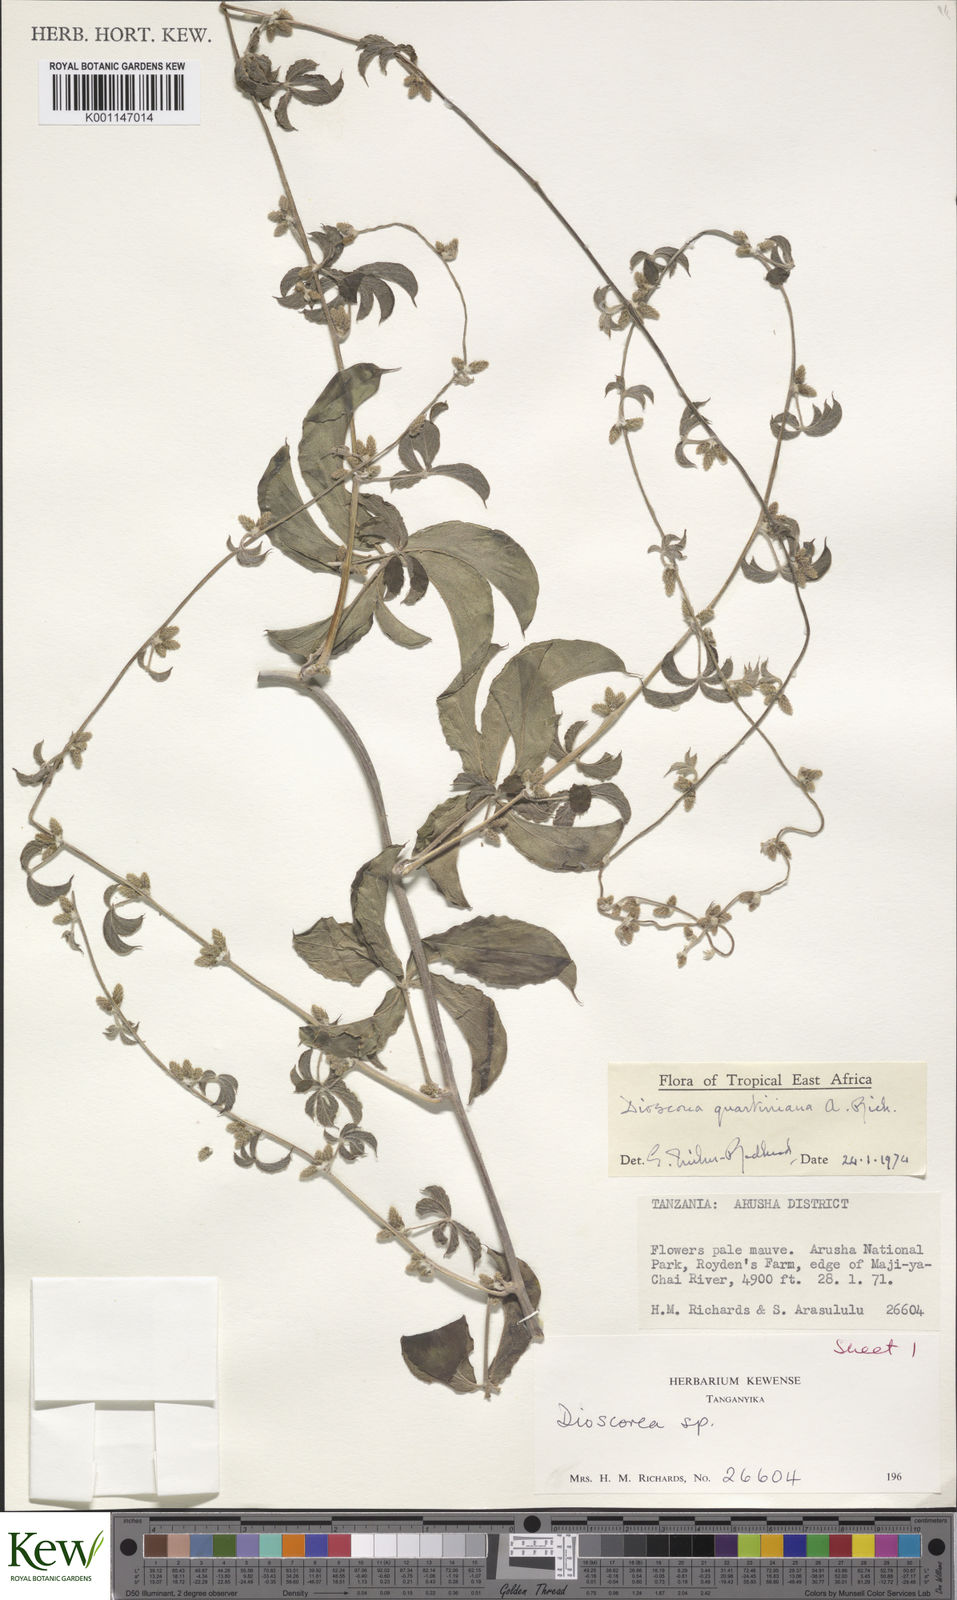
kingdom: Plantae
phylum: Tracheophyta
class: Liliopsida
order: Dioscoreales
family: Dioscoreaceae
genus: Dioscorea
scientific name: Dioscorea quartiniana
